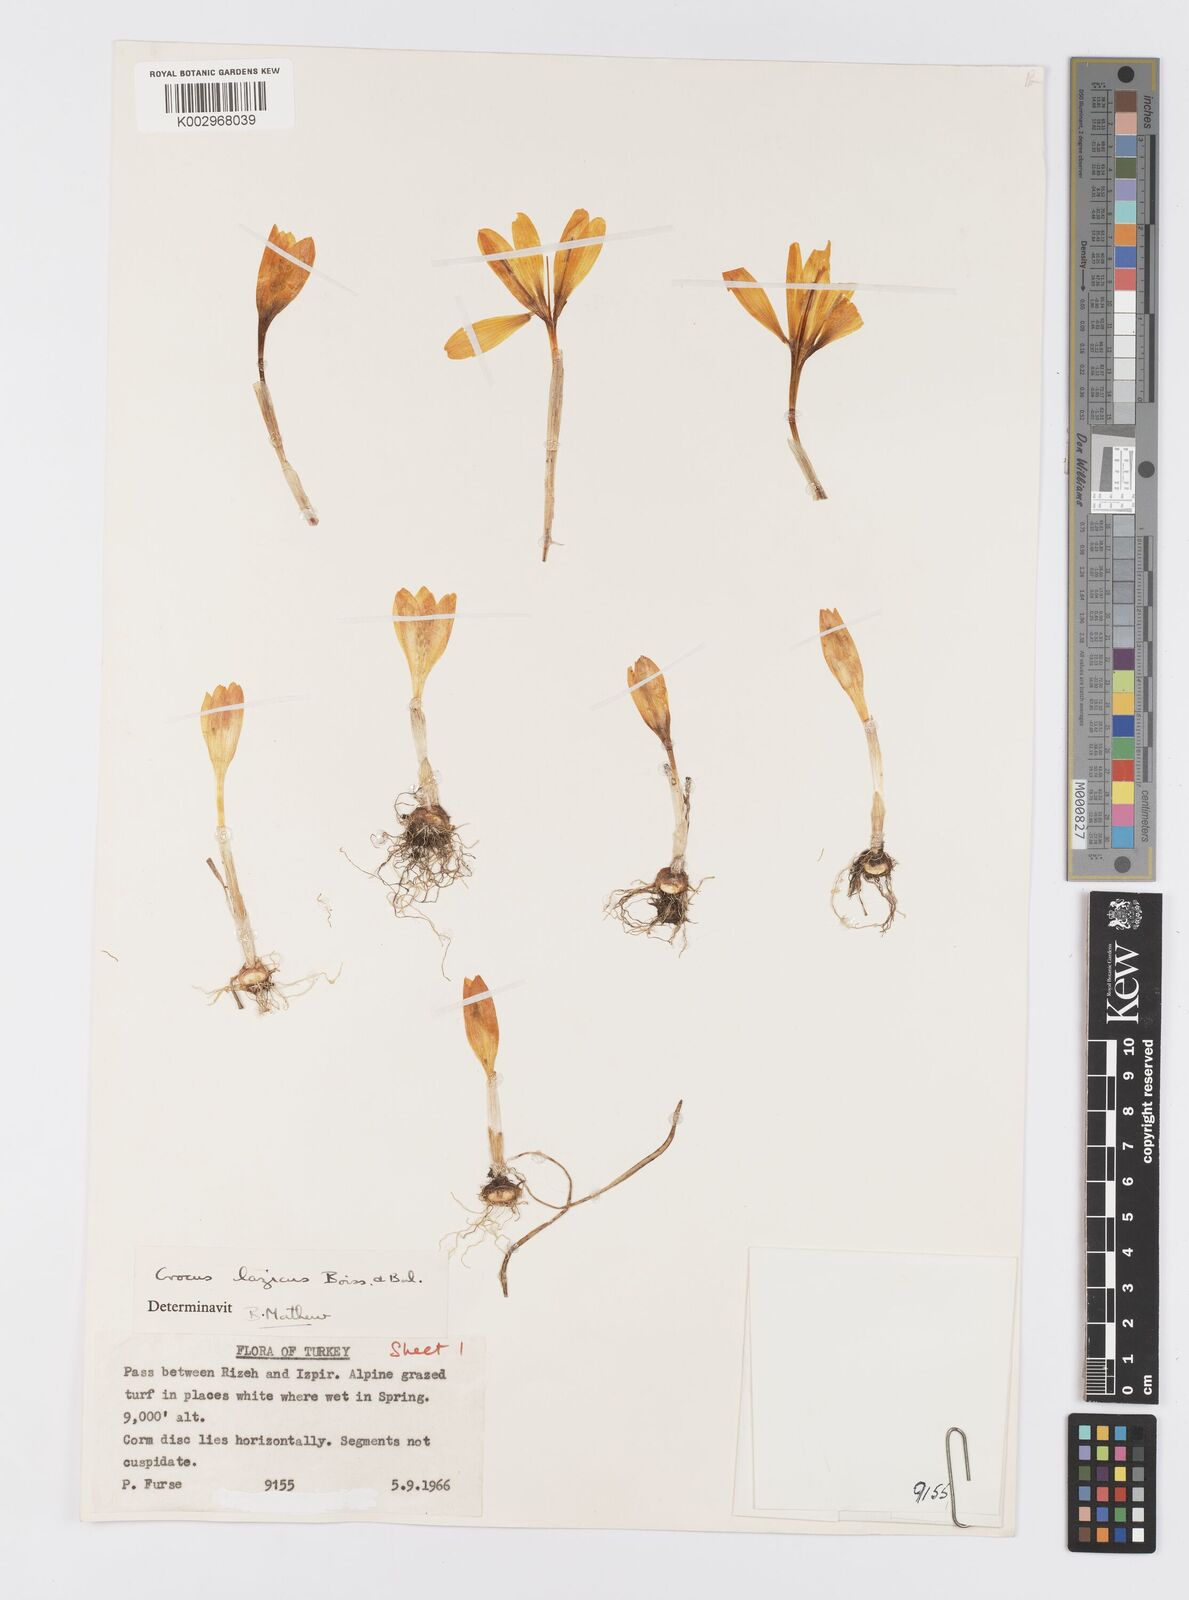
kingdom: Plantae
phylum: Tracheophyta
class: Liliopsida
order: Asparagales
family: Iridaceae
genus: Crocus
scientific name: Crocus lazicus
